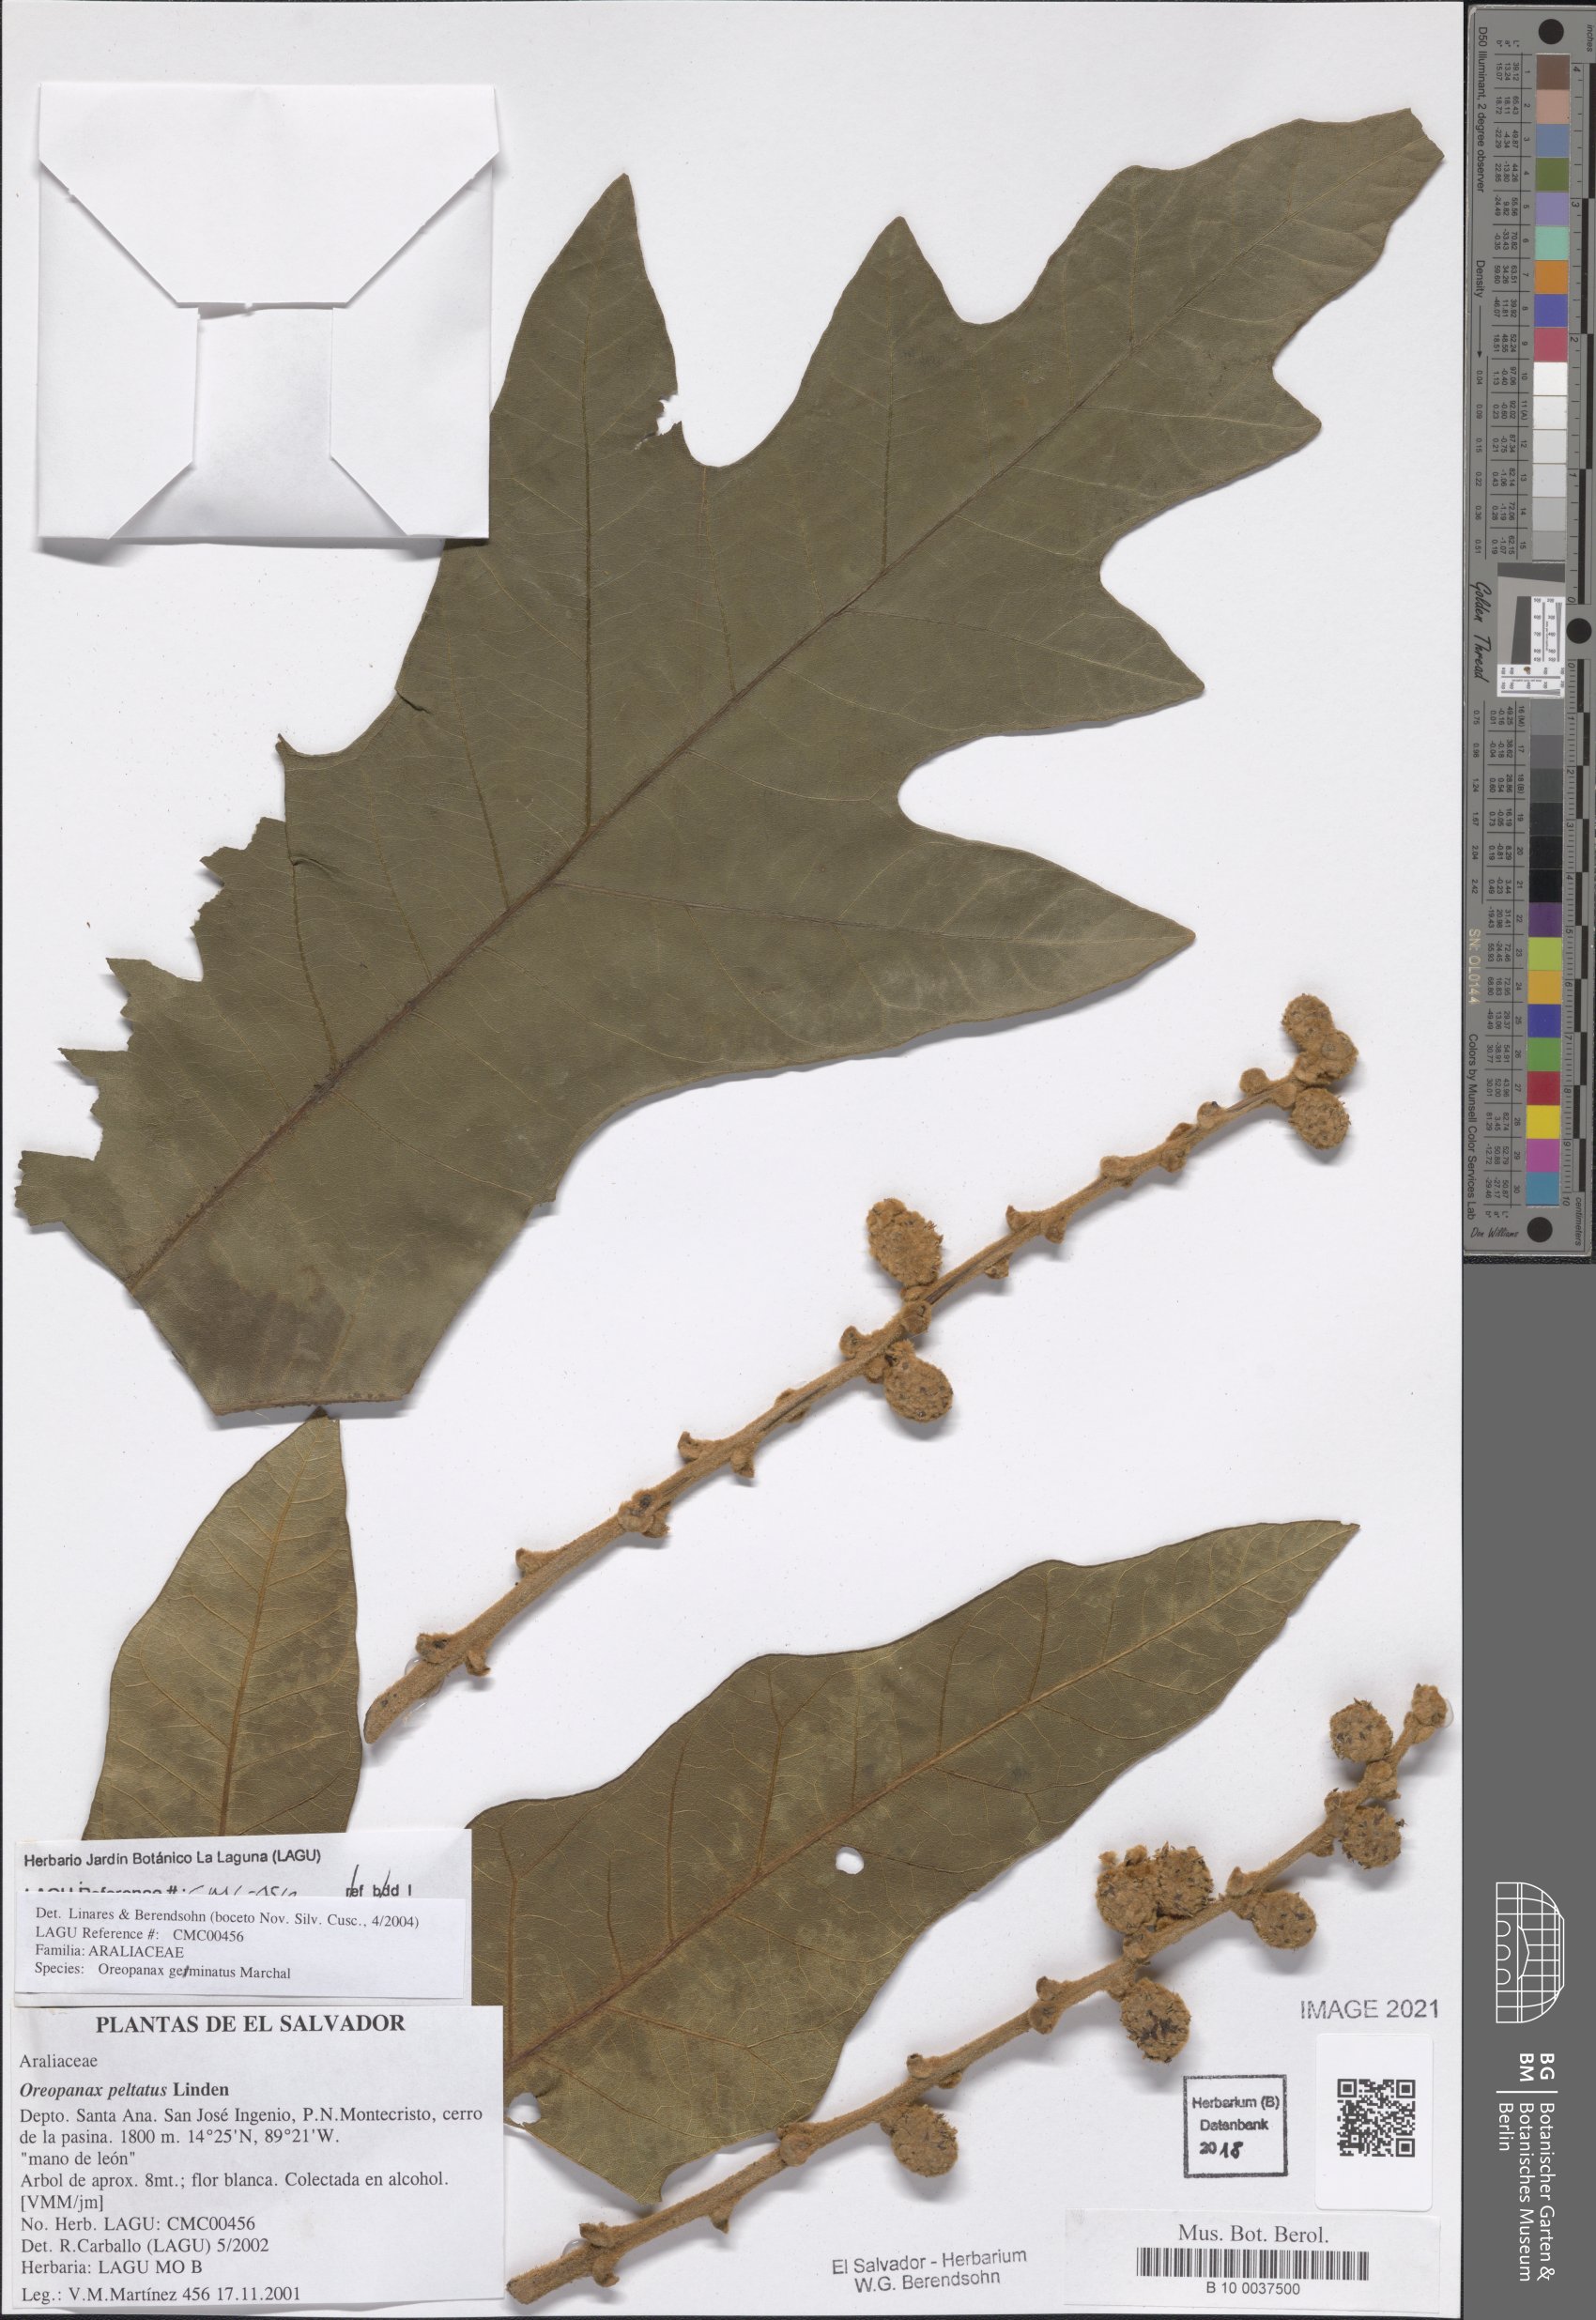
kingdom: Plantae
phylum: Tracheophyta
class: Magnoliopsida
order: Apiales
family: Araliaceae
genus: Oreopanax
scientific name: Oreopanax geminatus
